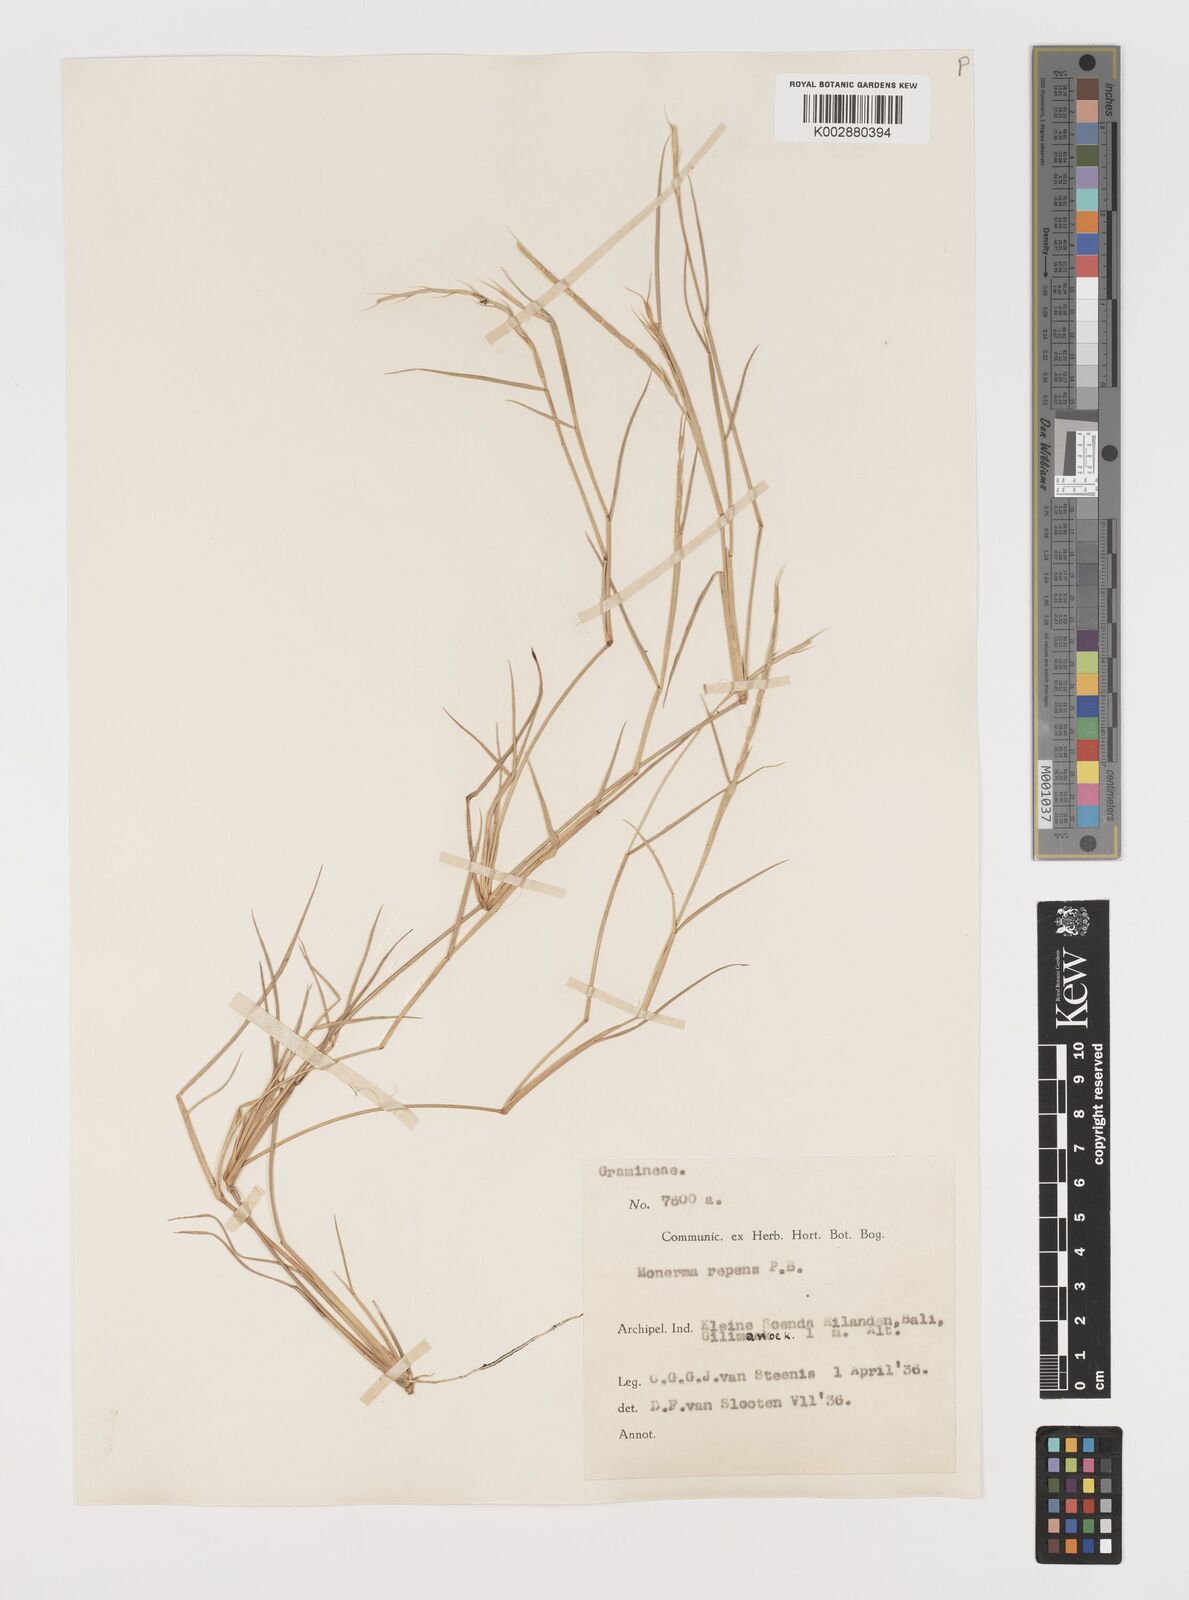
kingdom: Plantae
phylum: Tracheophyta
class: Liliopsida
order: Poales
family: Poaceae
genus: Lepturus
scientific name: Lepturus repens
